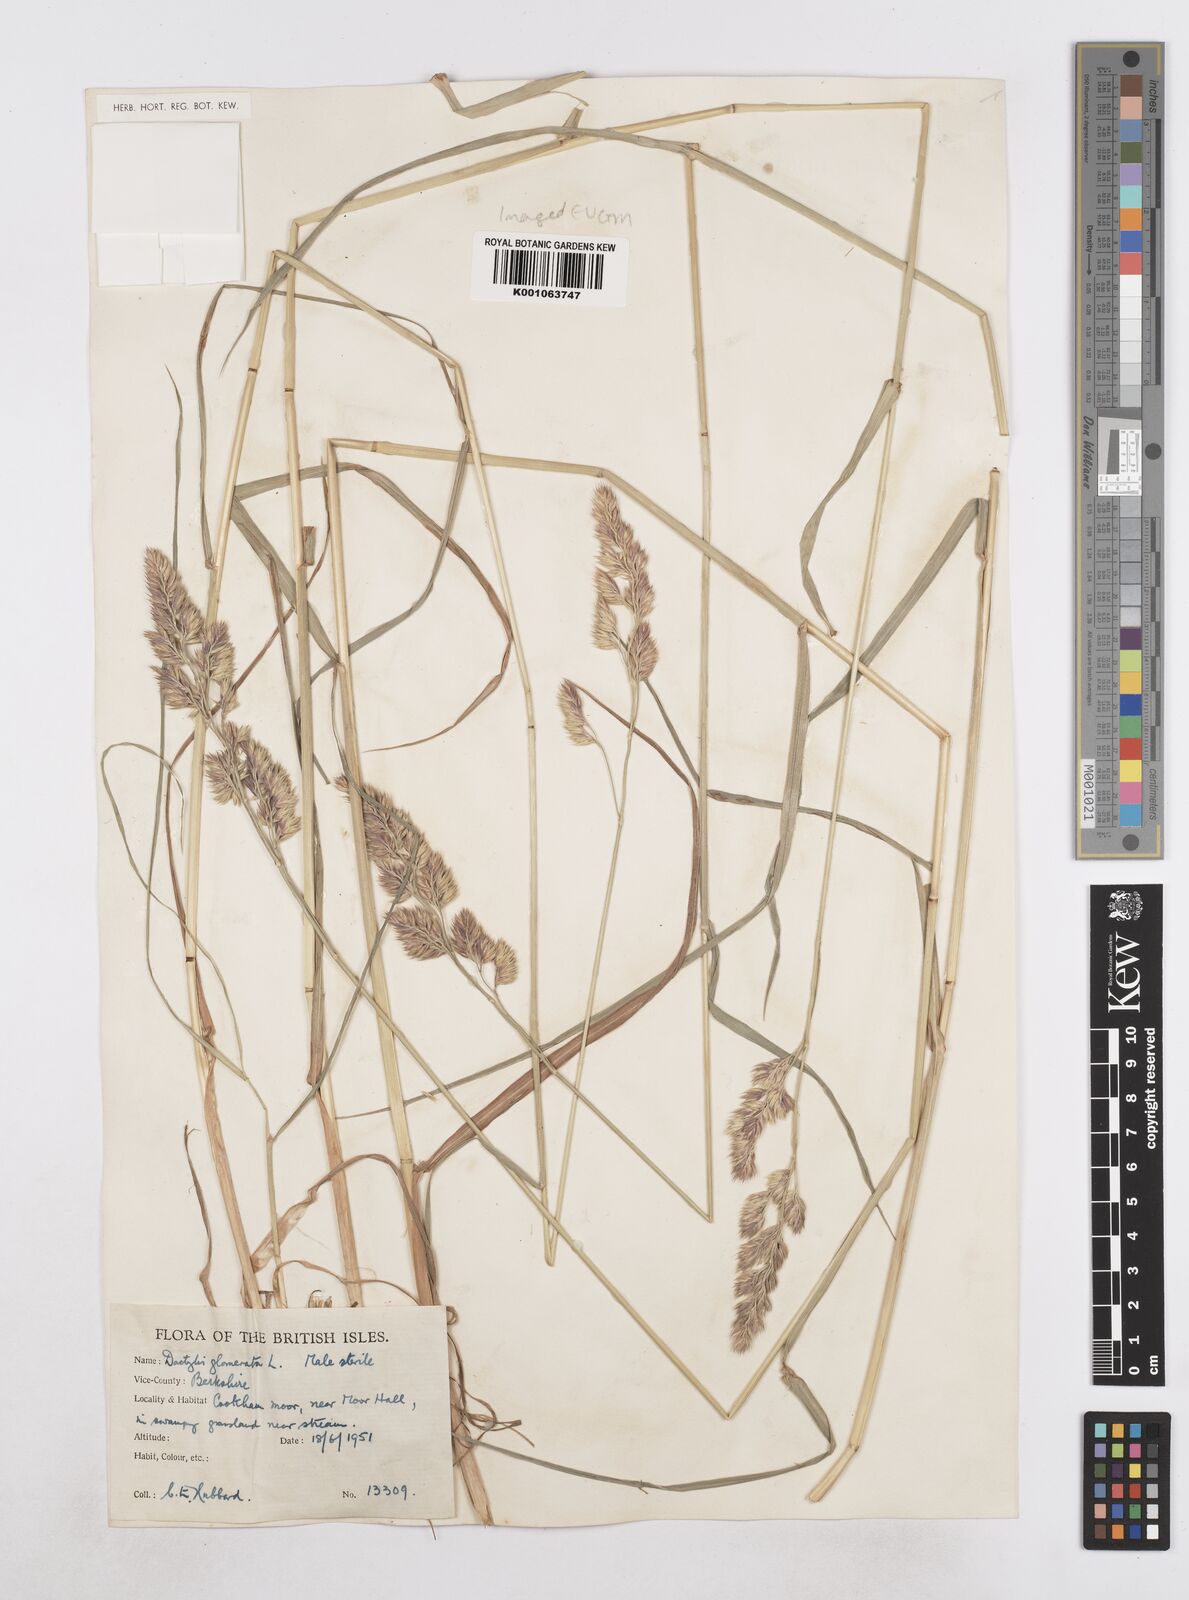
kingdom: Plantae
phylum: Tracheophyta
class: Liliopsida
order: Poales
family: Poaceae
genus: Dactylis
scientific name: Dactylis glomerata
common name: Orchardgrass
